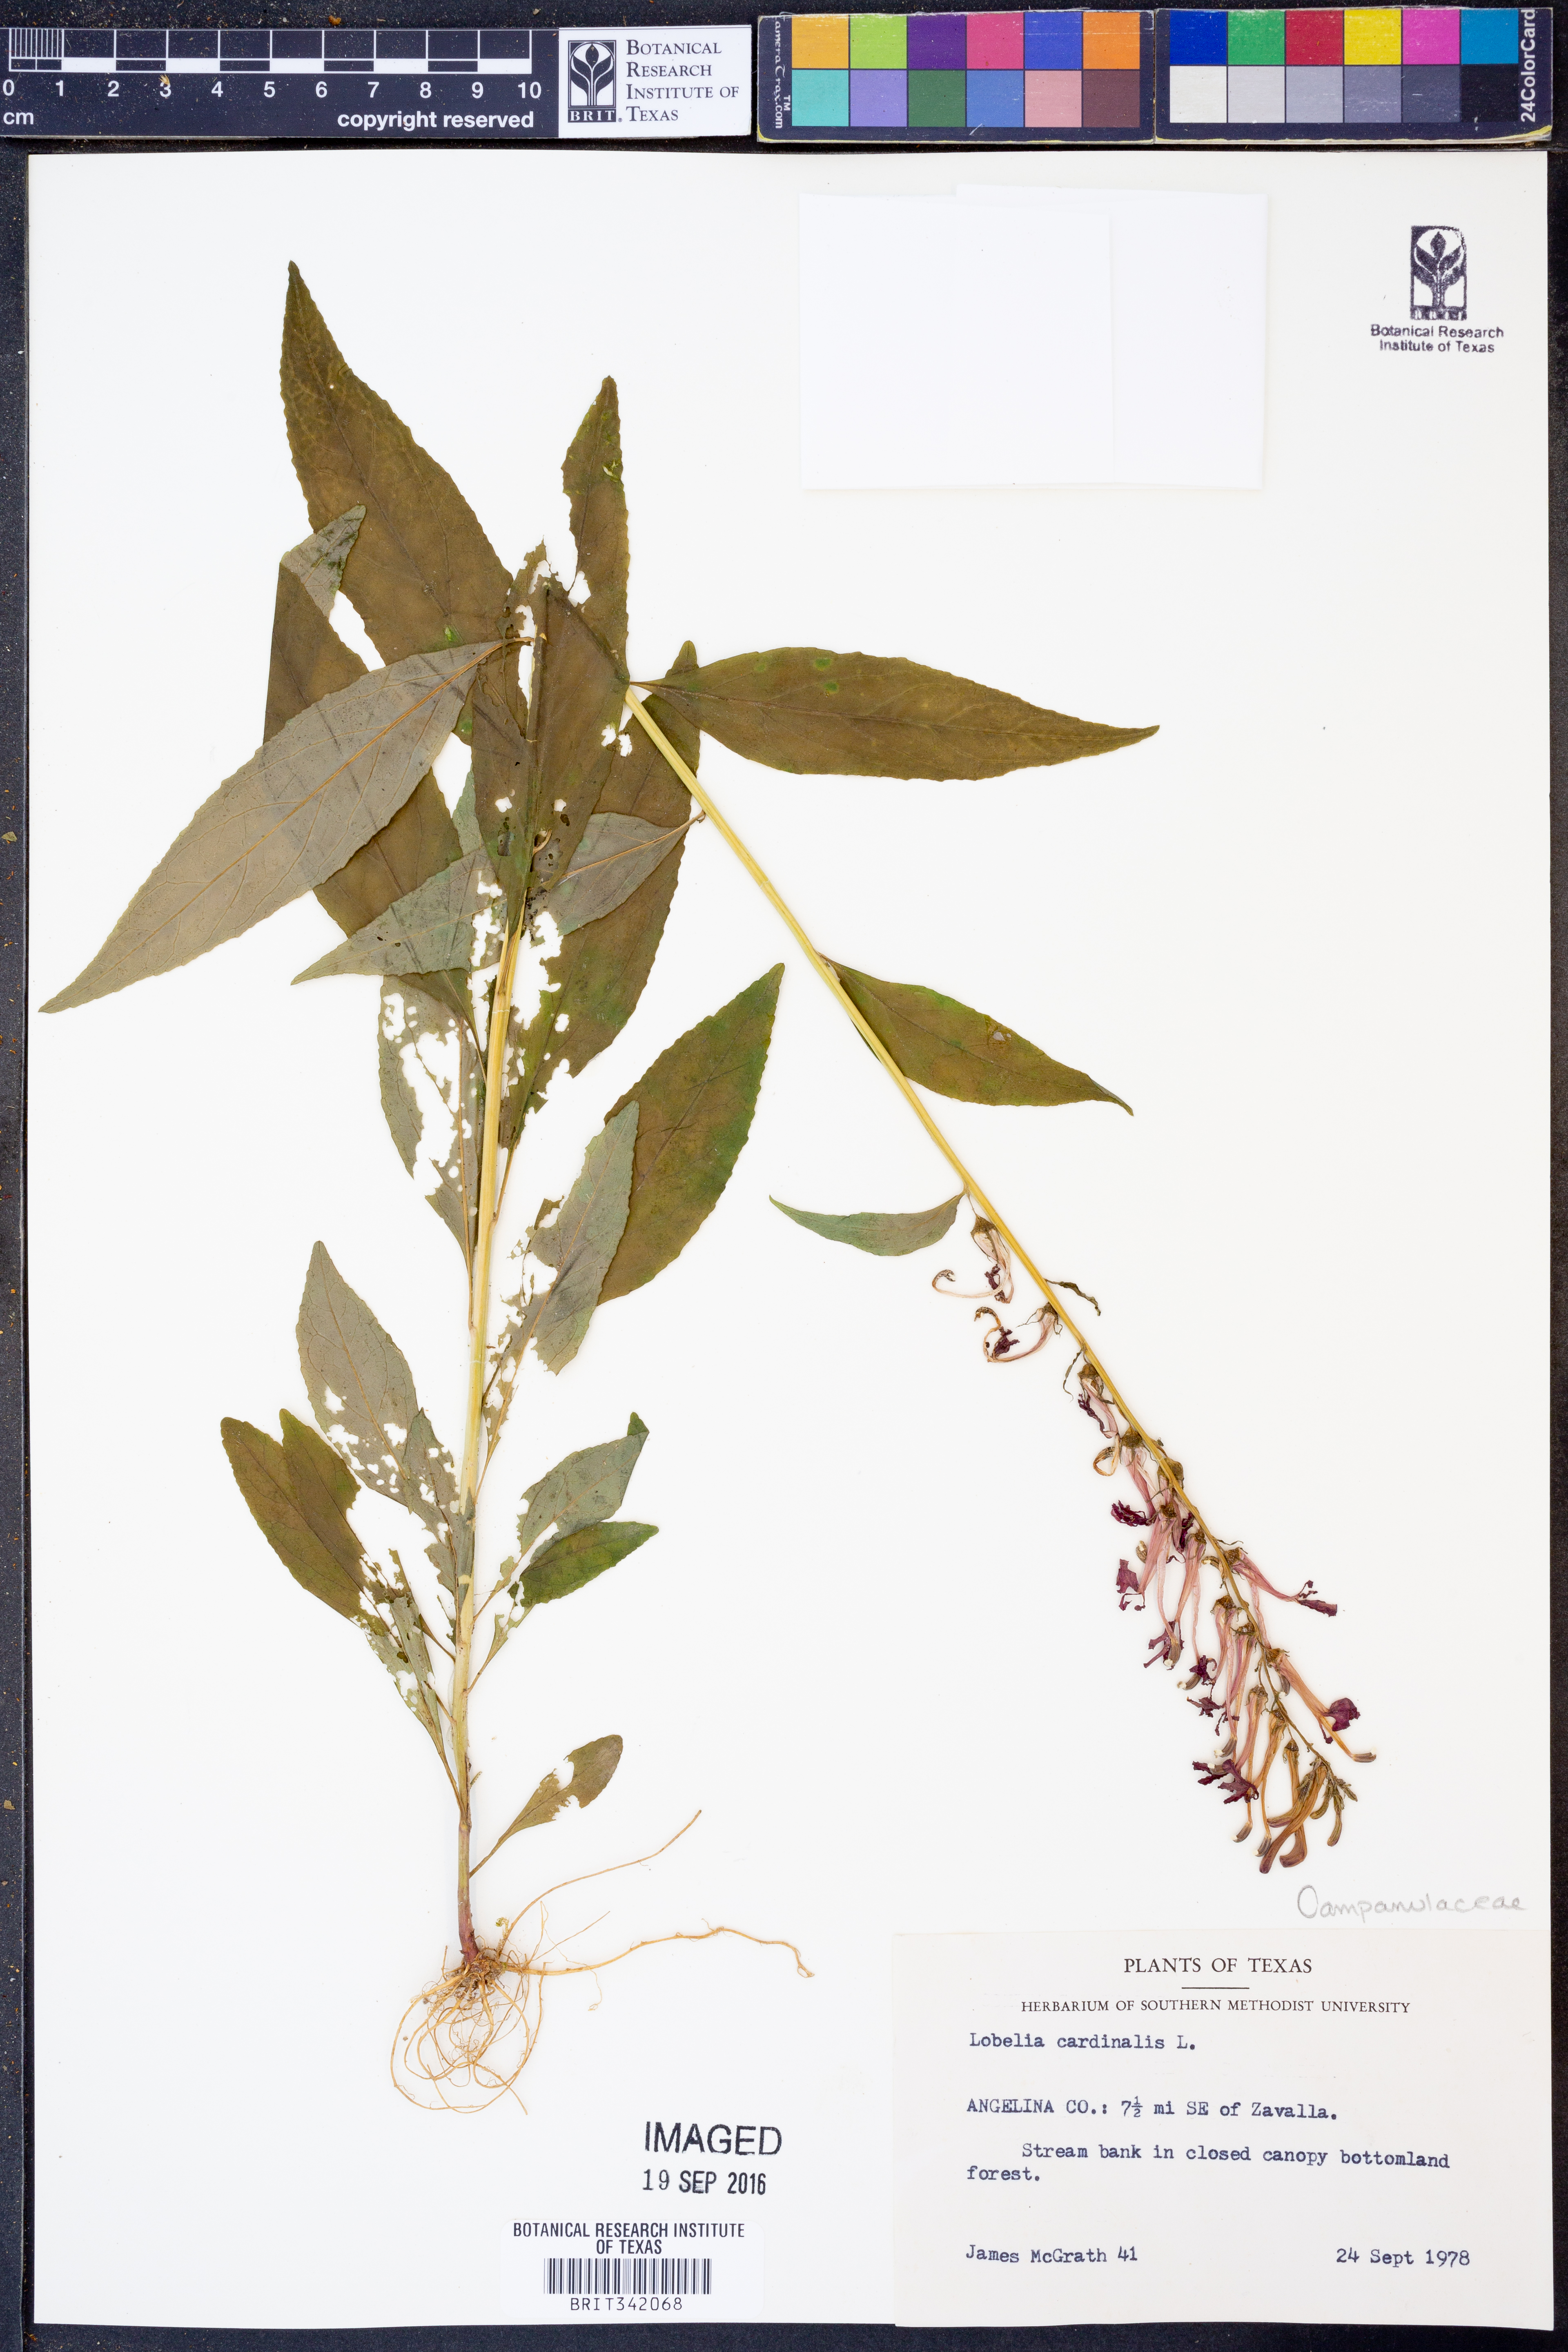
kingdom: Plantae
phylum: Tracheophyta
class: Magnoliopsida
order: Asterales
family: Campanulaceae
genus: Lobelia
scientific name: Lobelia cardinalis
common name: Cardinal flower
